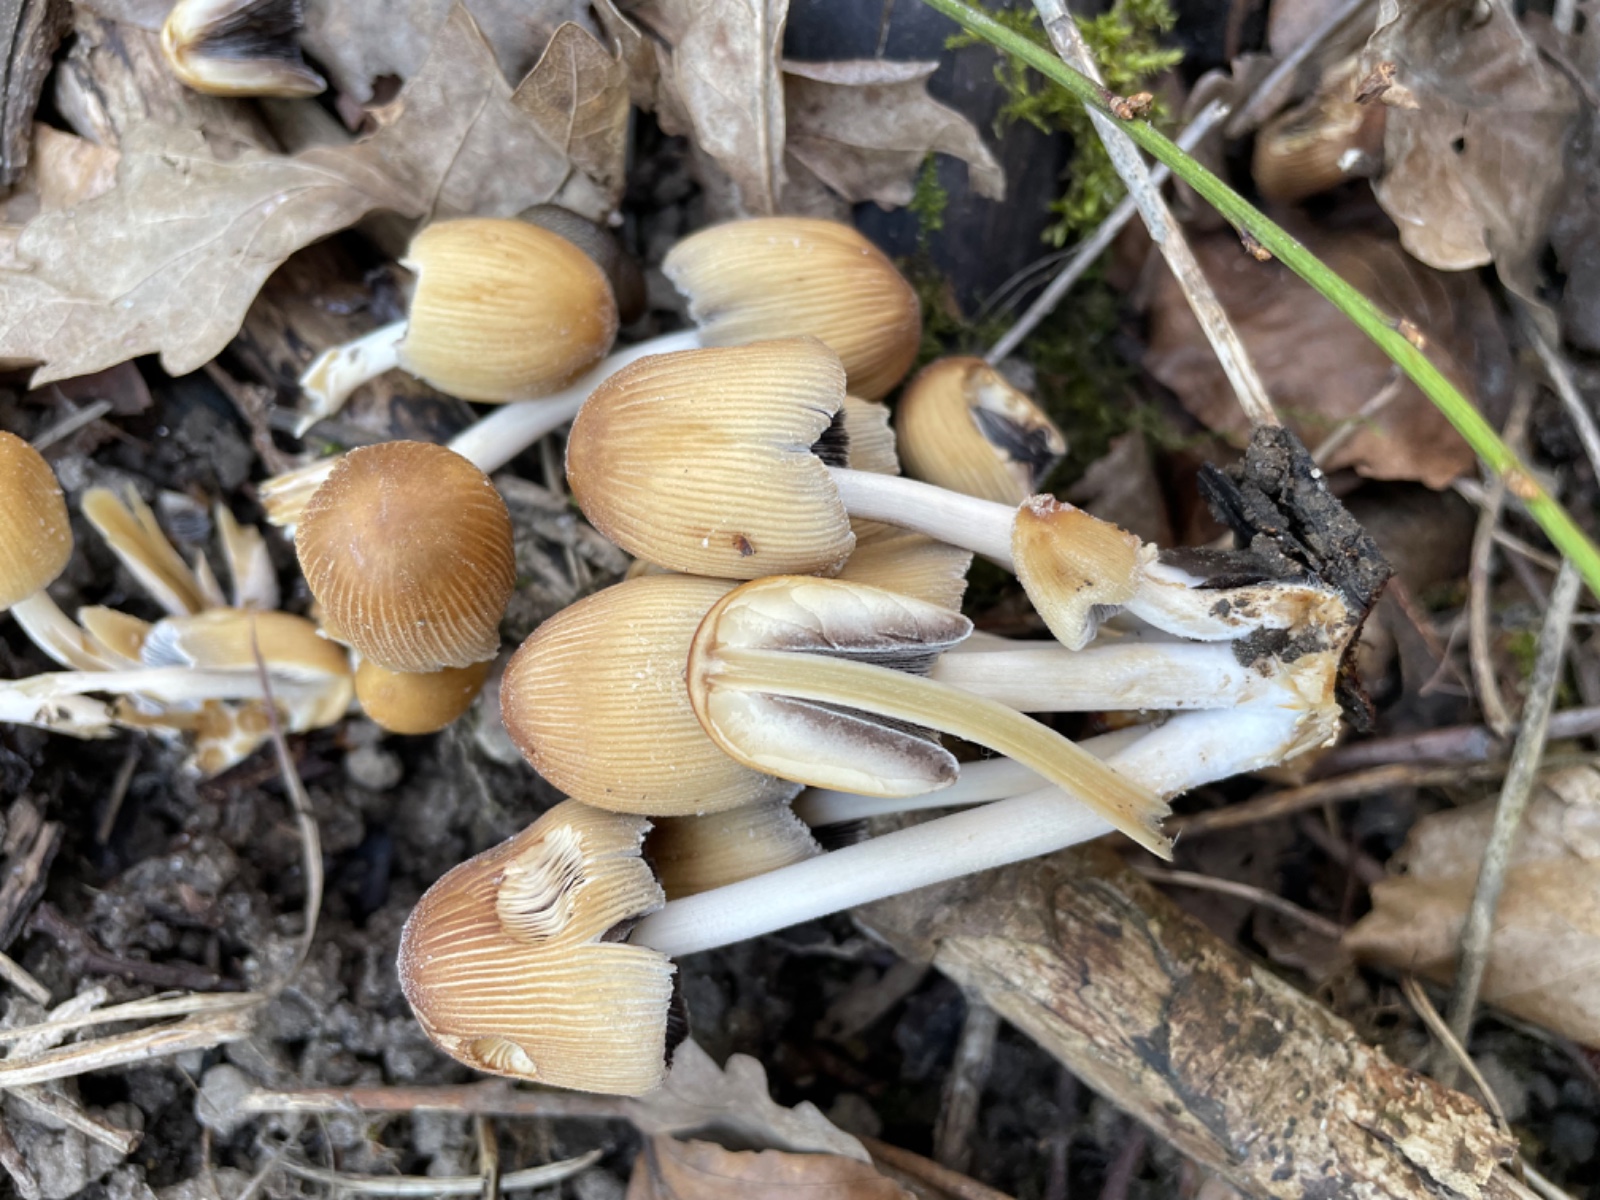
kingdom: Fungi
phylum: Basidiomycota
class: Agaricomycetes
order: Agaricales
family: Psathyrellaceae
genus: Coprinellus
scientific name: Coprinellus micaceus
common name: glimmer-blækhat
